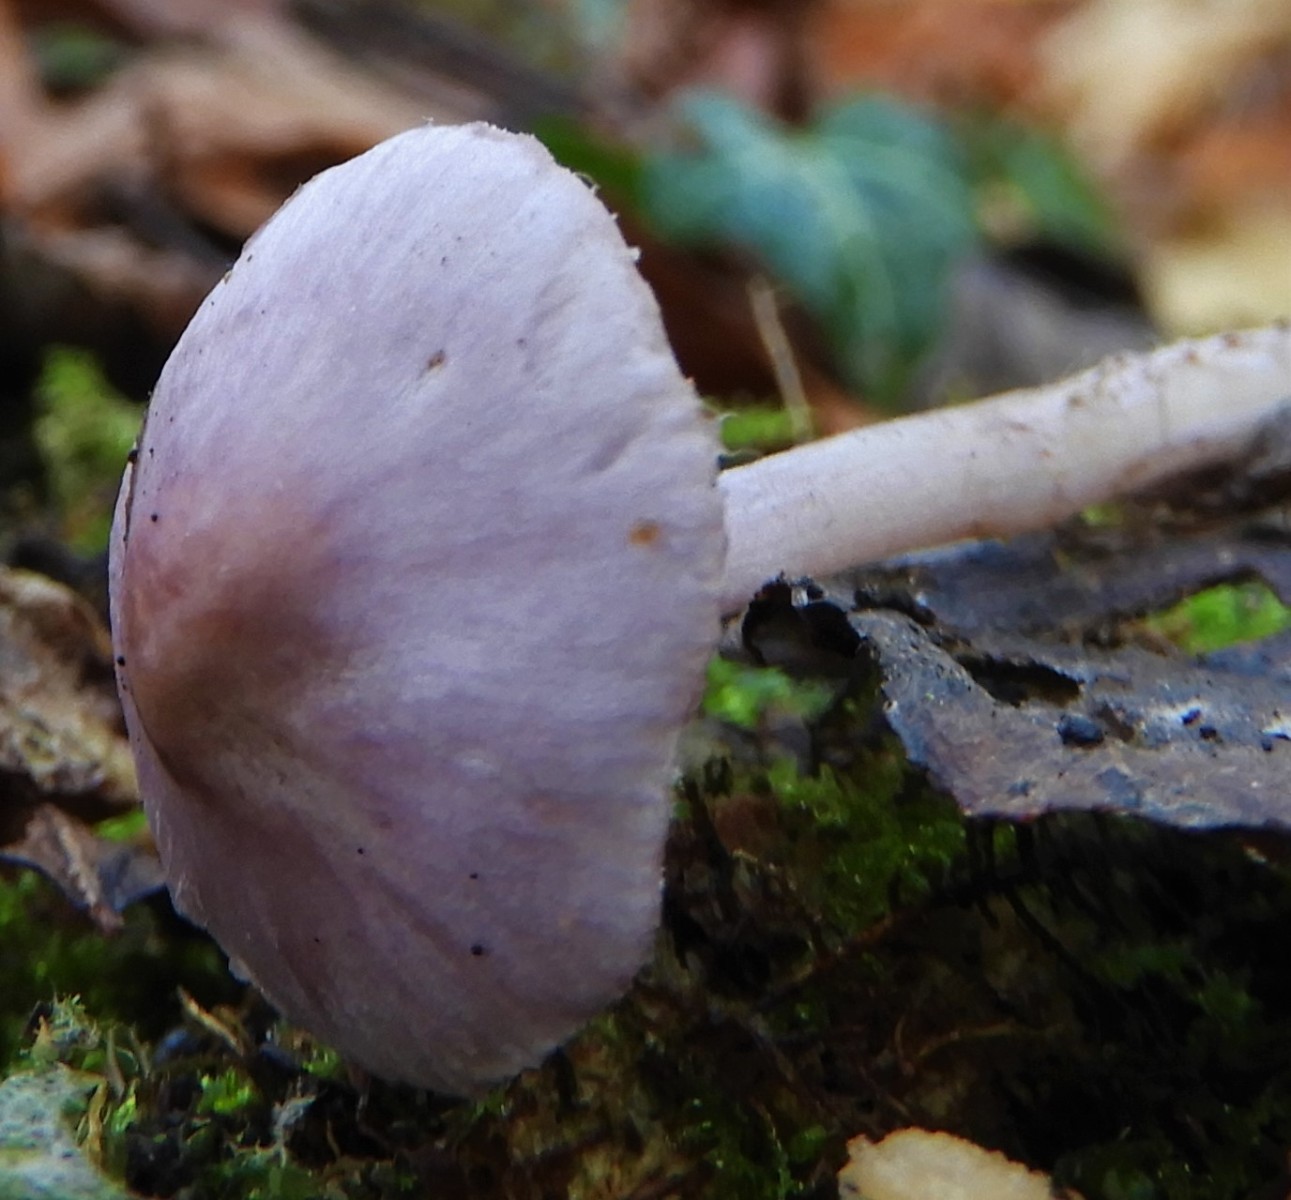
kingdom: Fungi
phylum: Basidiomycota
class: Agaricomycetes
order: Agaricales
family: Inocybaceae
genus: Inocybe
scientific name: Inocybe geophylla
